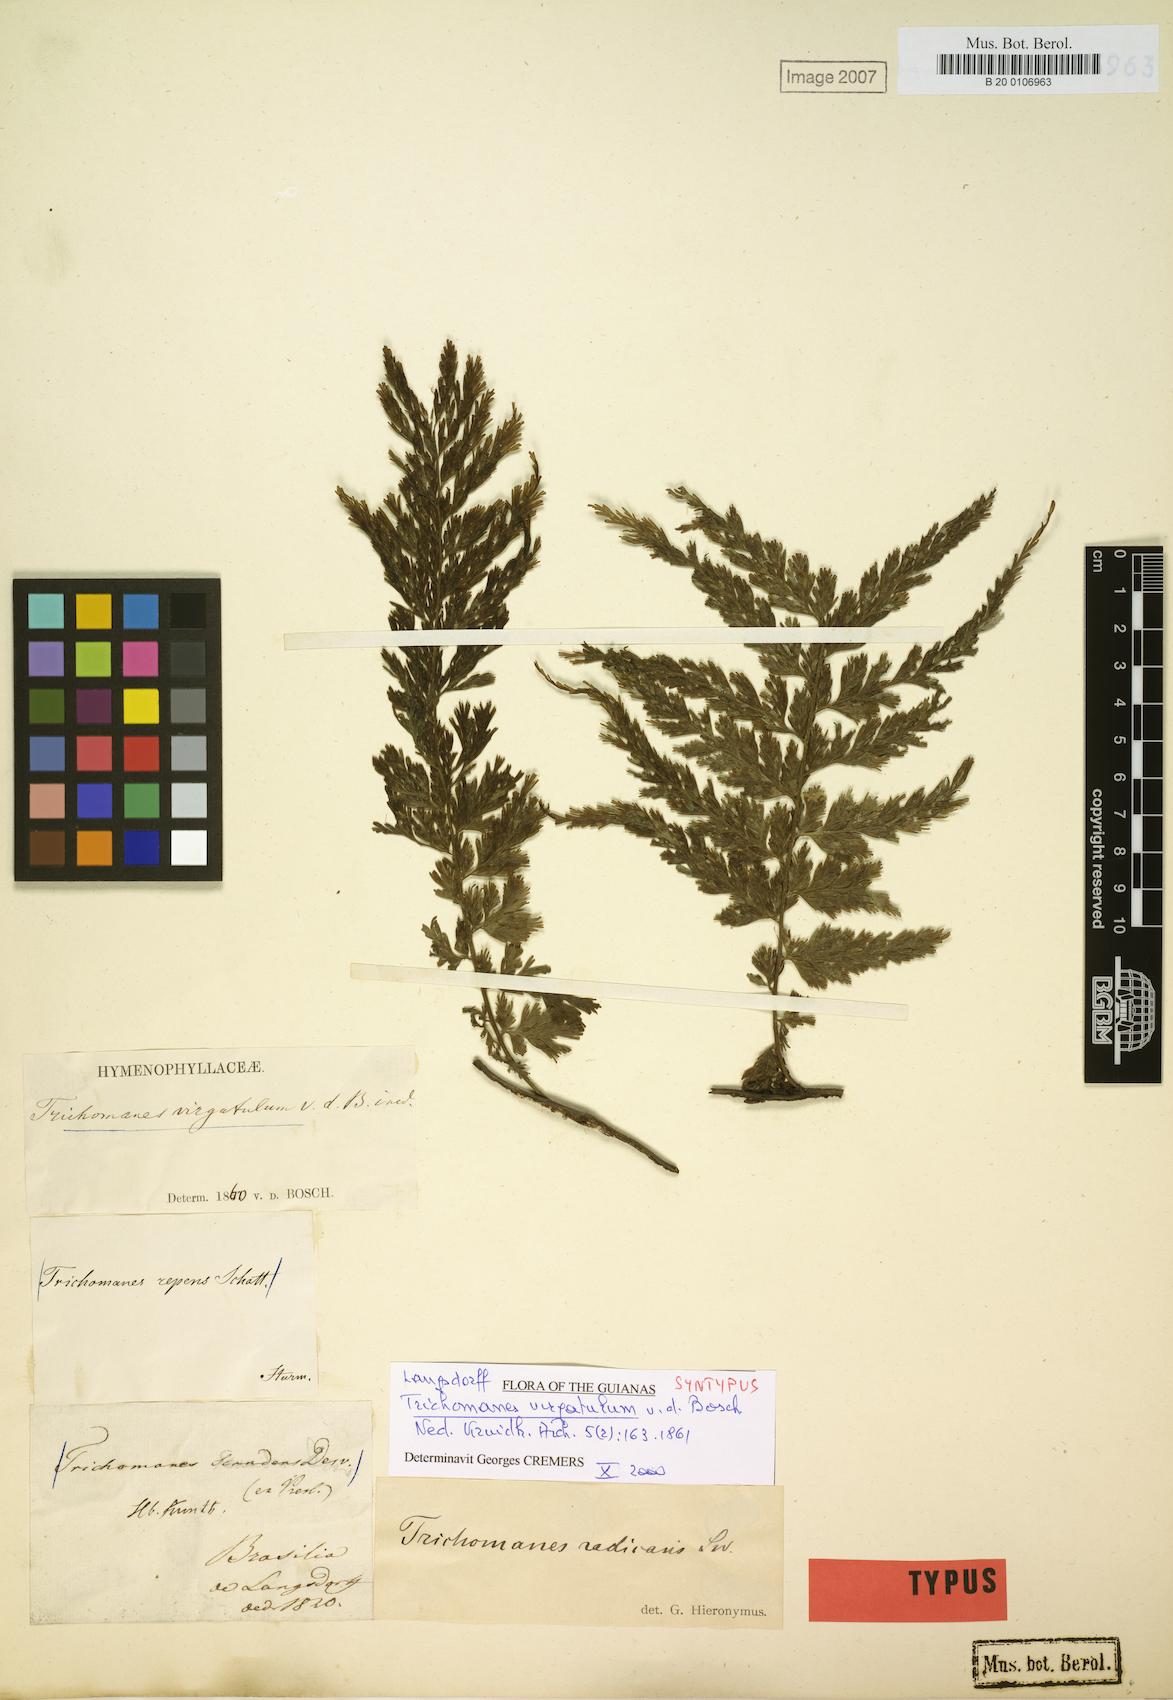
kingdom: Plantae
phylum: Tracheophyta
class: Polypodiopsida
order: Hymenophyllales
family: Hymenophyllaceae
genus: Vandenboschia
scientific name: Vandenboschia radicans
